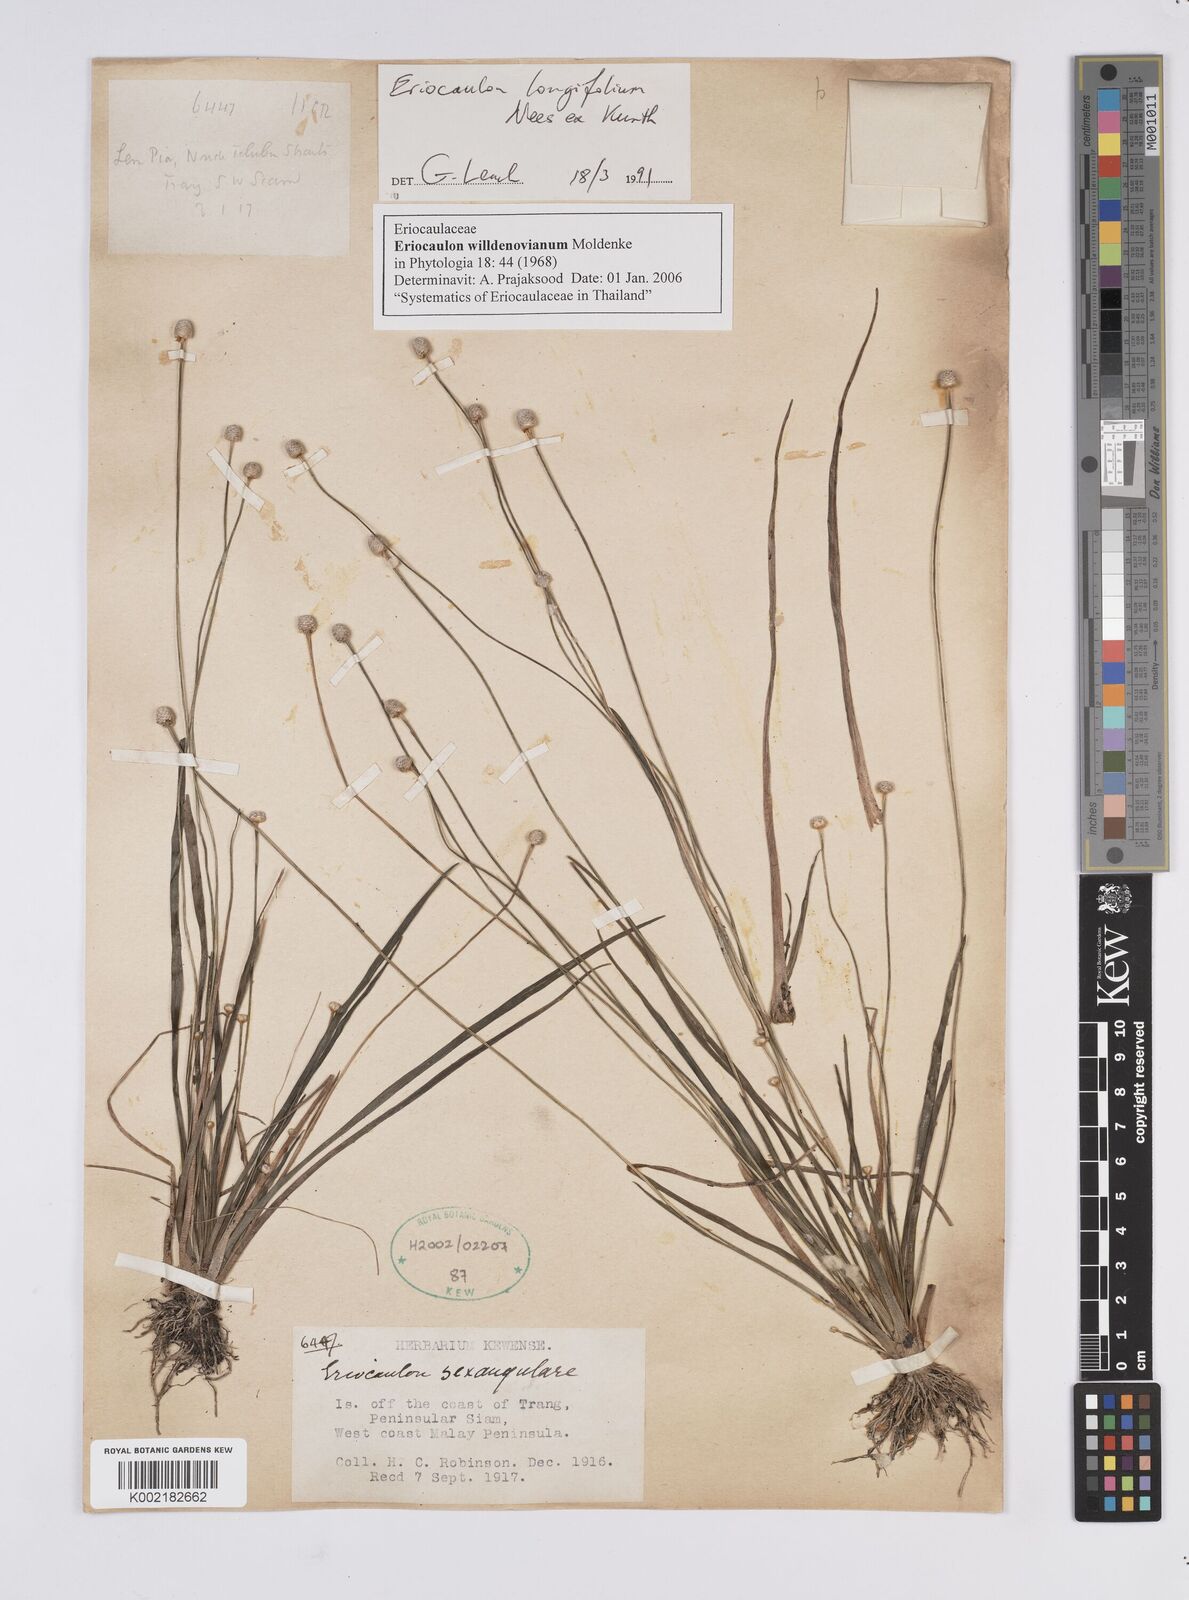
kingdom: Plantae
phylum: Tracheophyta
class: Liliopsida
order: Poales
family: Eriocaulaceae
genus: Eriocaulon
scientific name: Eriocaulon willdenovianum
